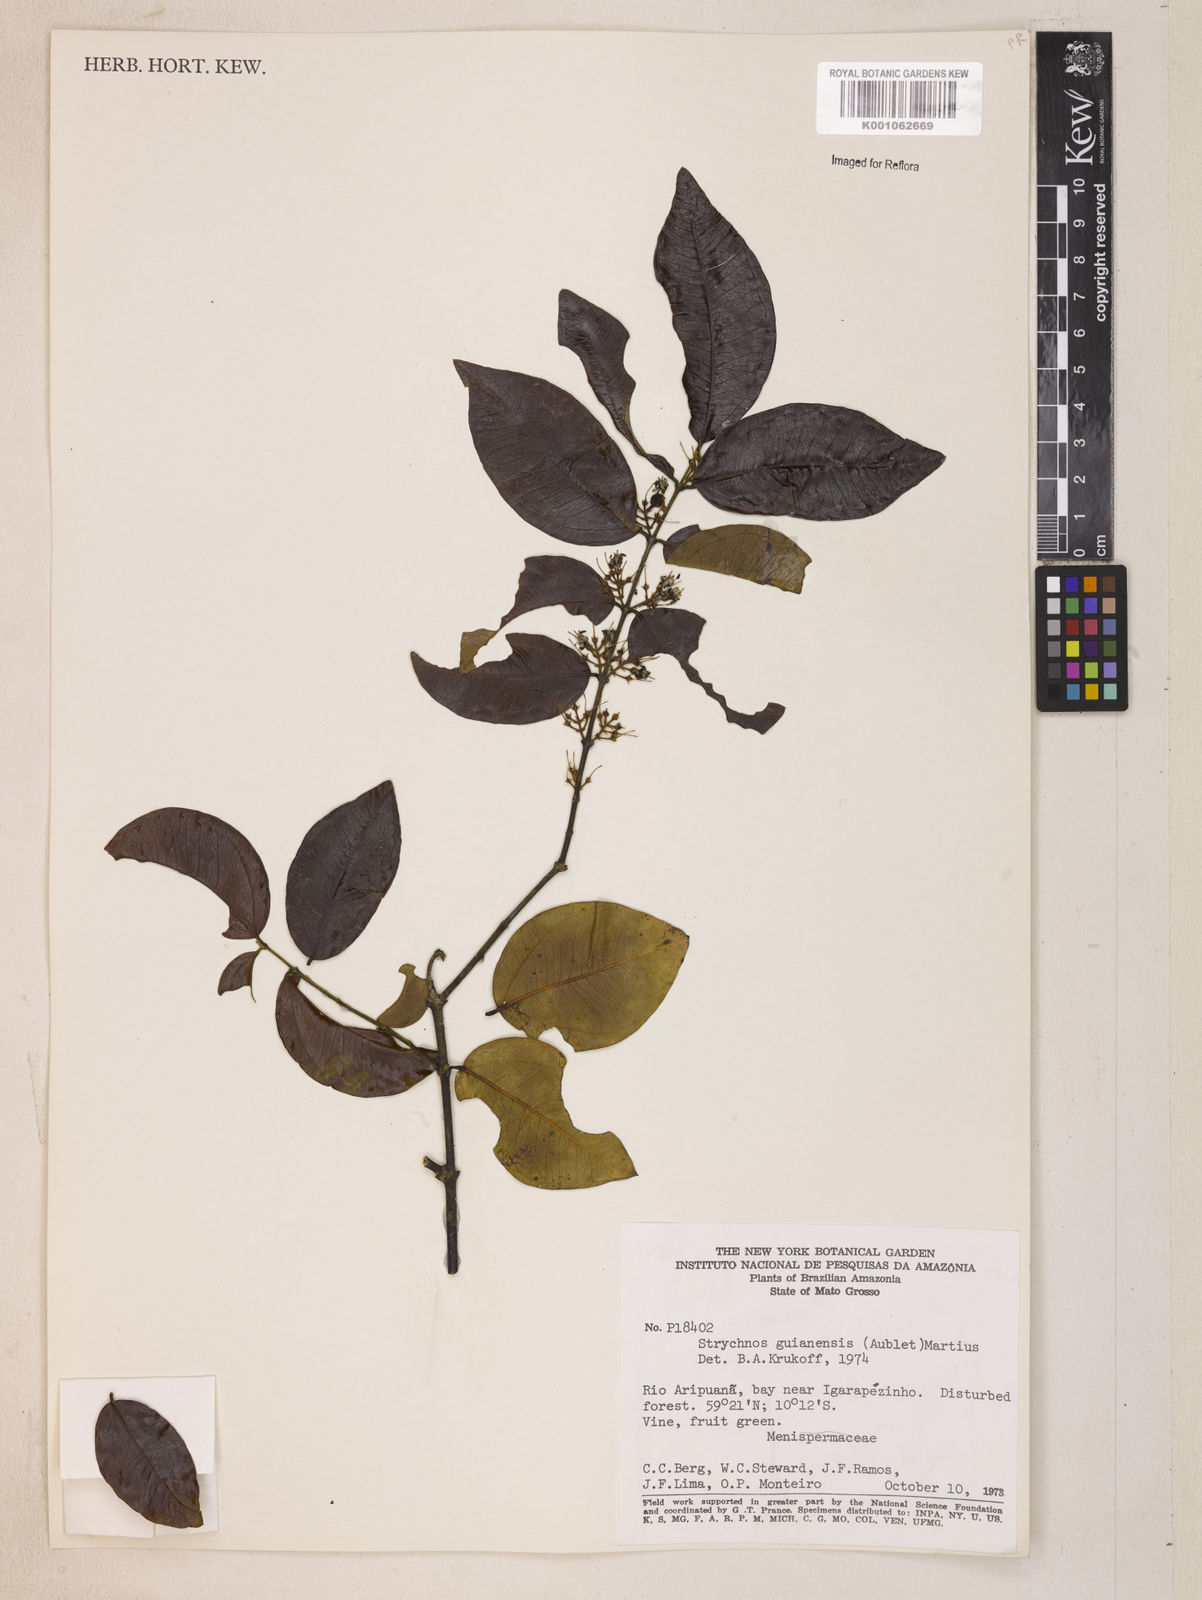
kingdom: Plantae
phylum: Tracheophyta
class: Magnoliopsida
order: Gentianales
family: Loganiaceae
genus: Strychnos
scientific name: Strychnos guianensis
